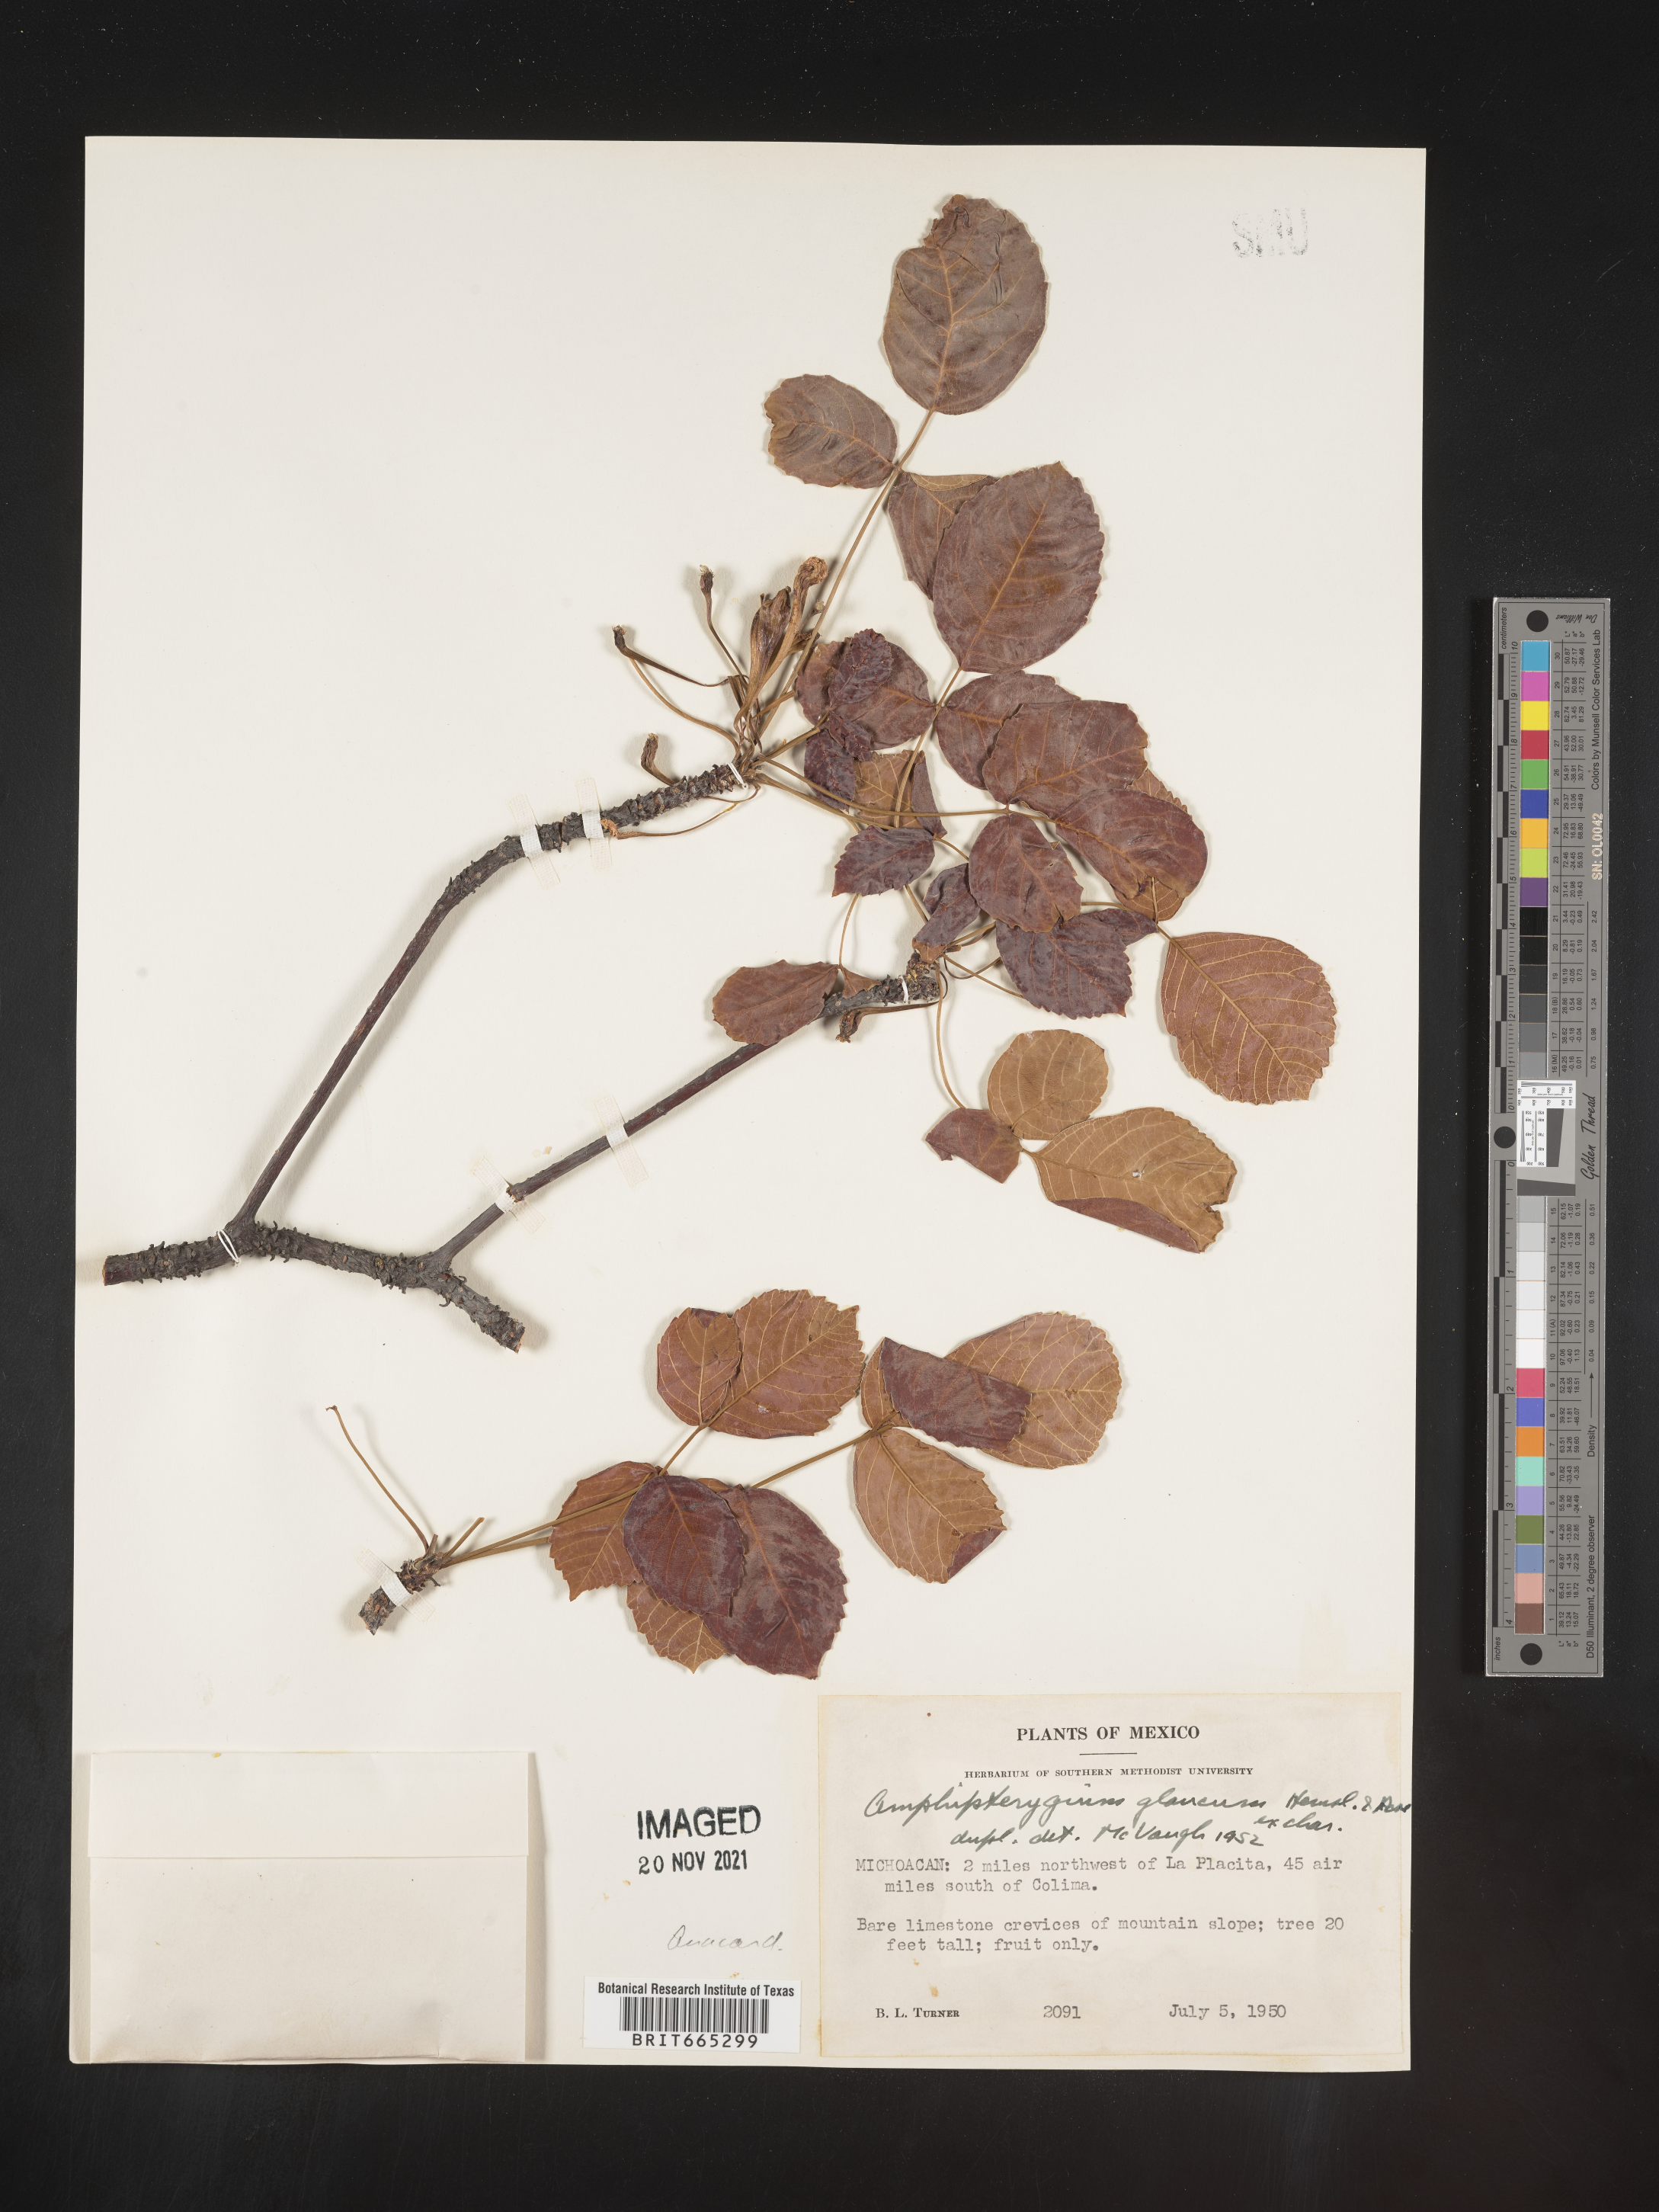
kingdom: Plantae
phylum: Tracheophyta
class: Magnoliopsida
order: Sapindales
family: Anacardiaceae
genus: Amphipterygium
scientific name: Amphipterygium
